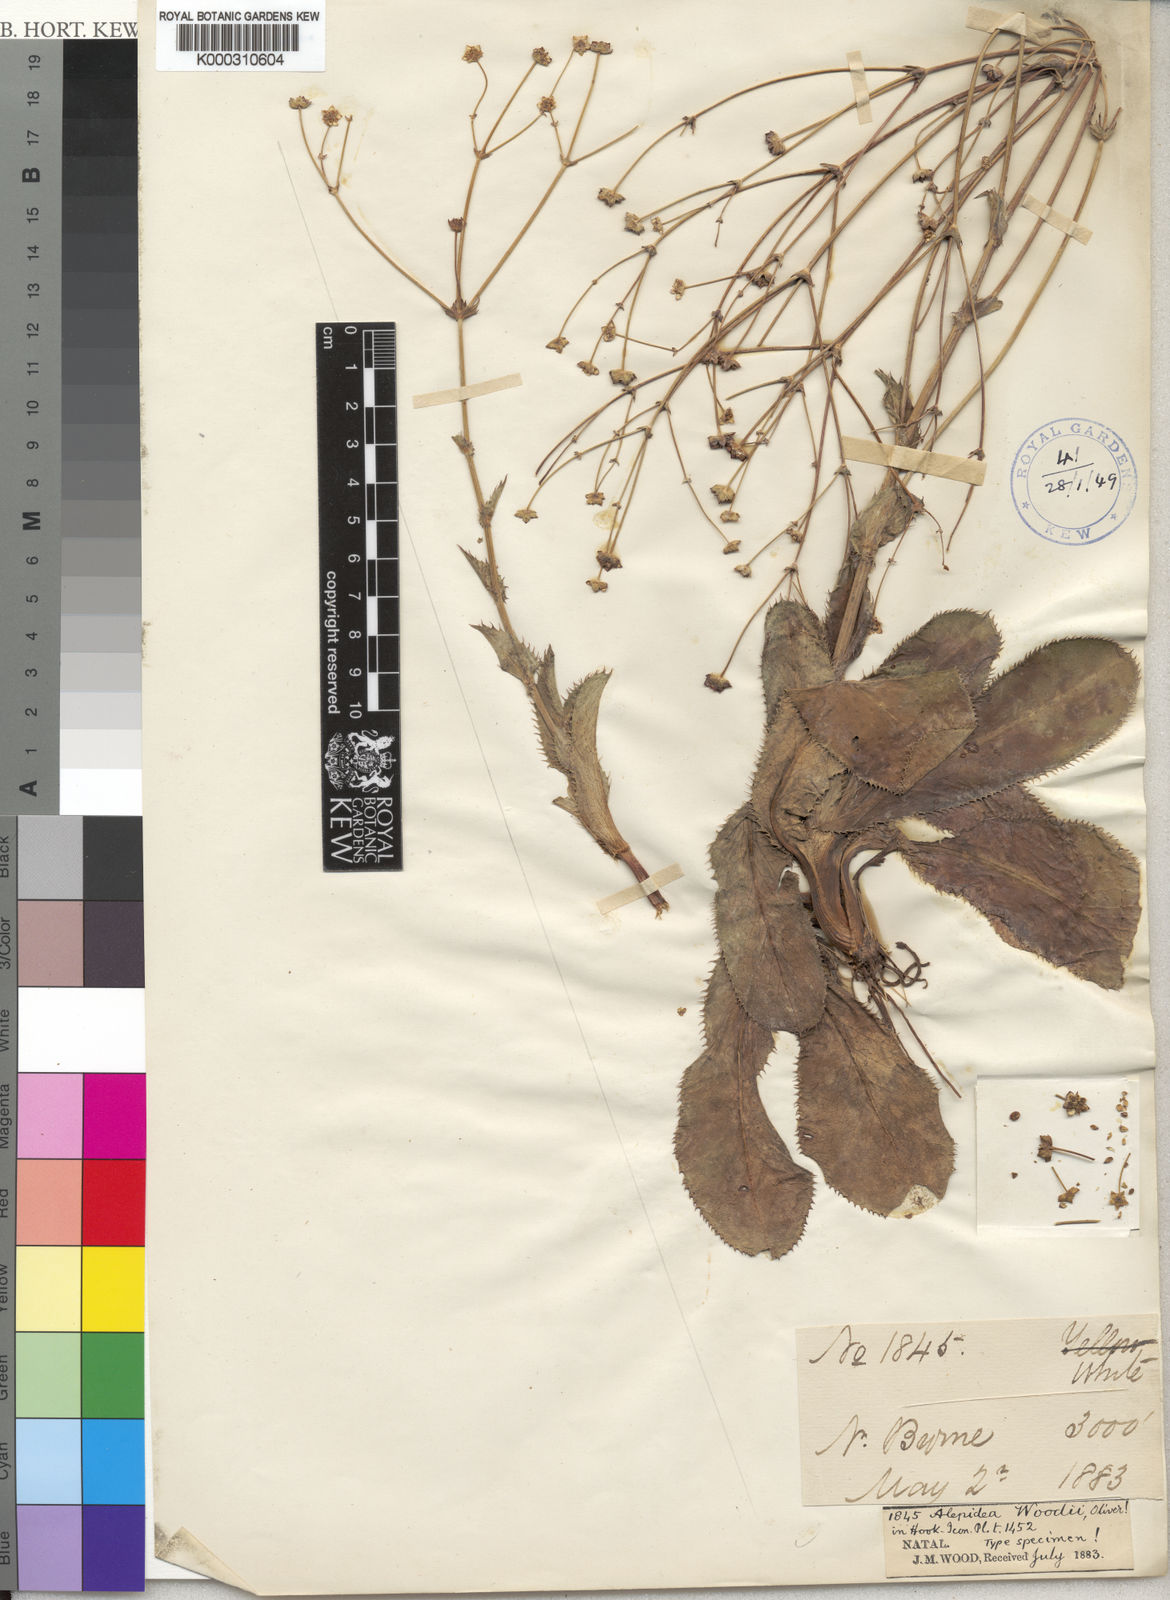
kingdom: Plantae
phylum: Tracheophyta
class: Magnoliopsida
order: Apiales
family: Apiaceae
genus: Alepidea
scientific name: Alepidea woodii
